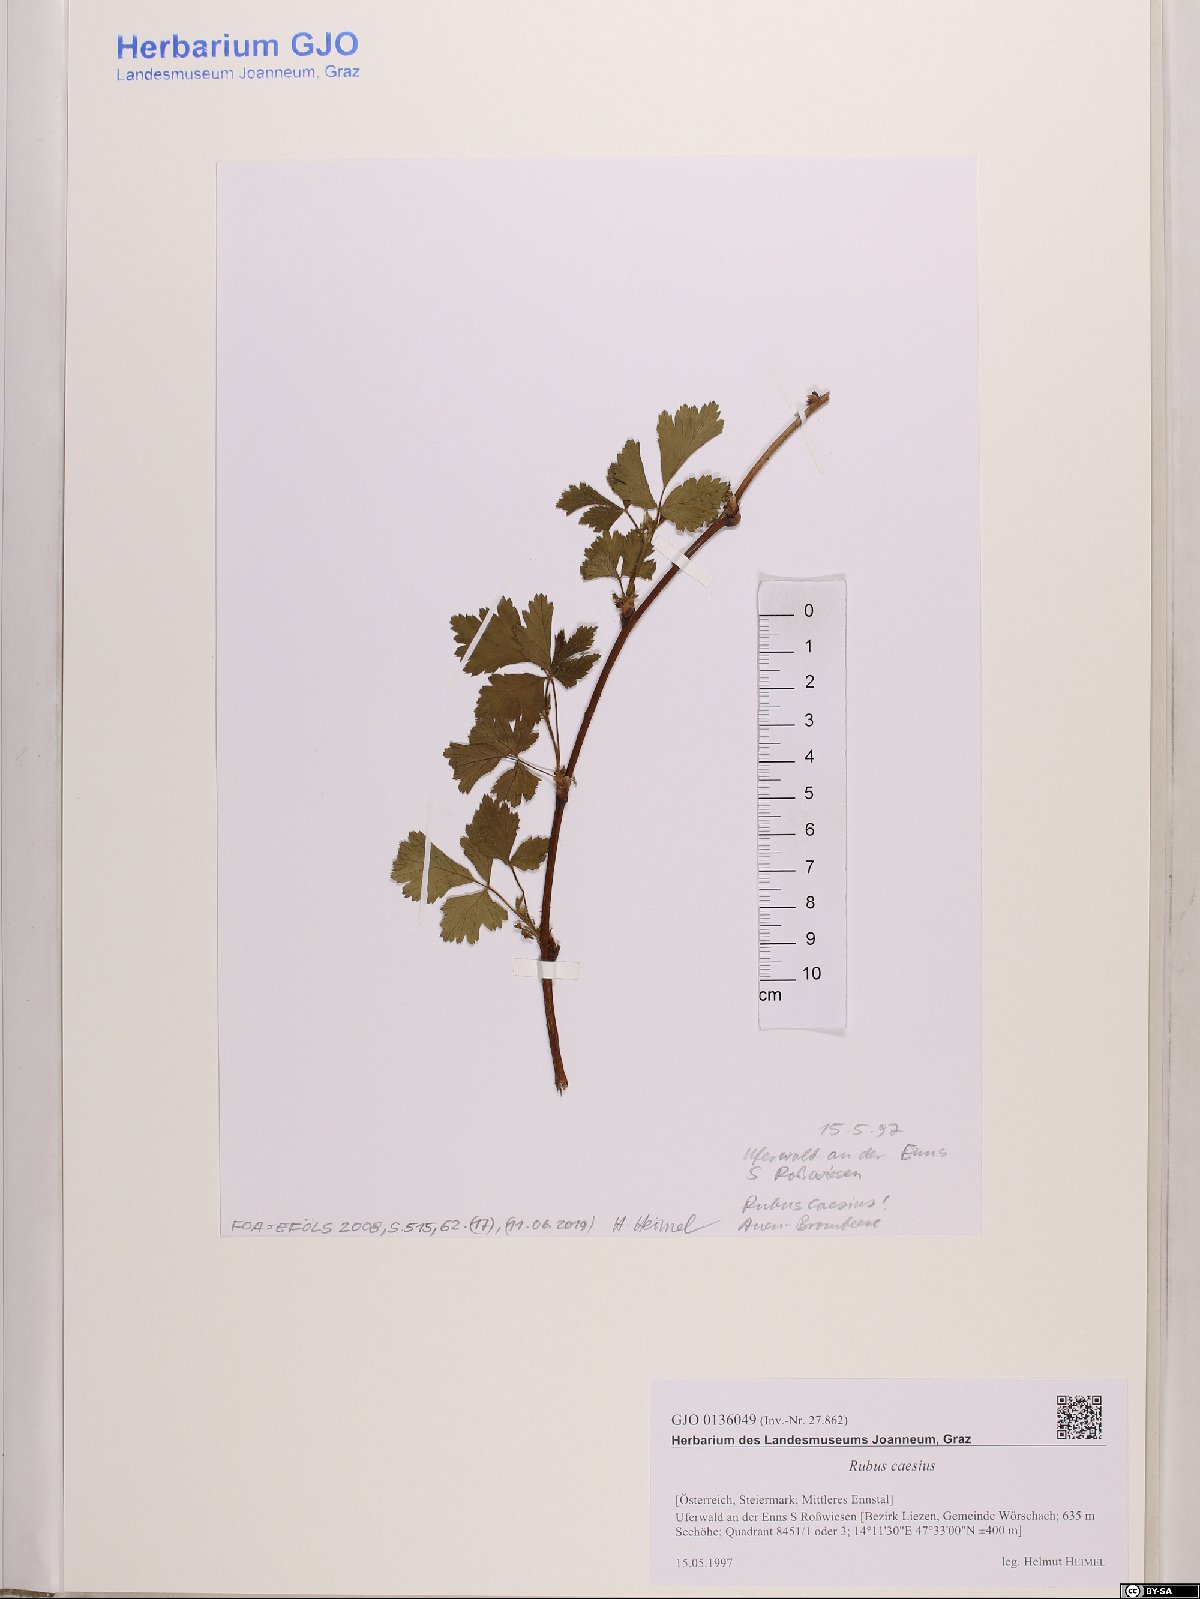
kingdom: Plantae
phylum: Tracheophyta
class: Magnoliopsida
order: Rosales
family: Rosaceae
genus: Rubus
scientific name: Rubus caesius
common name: Dewberry
